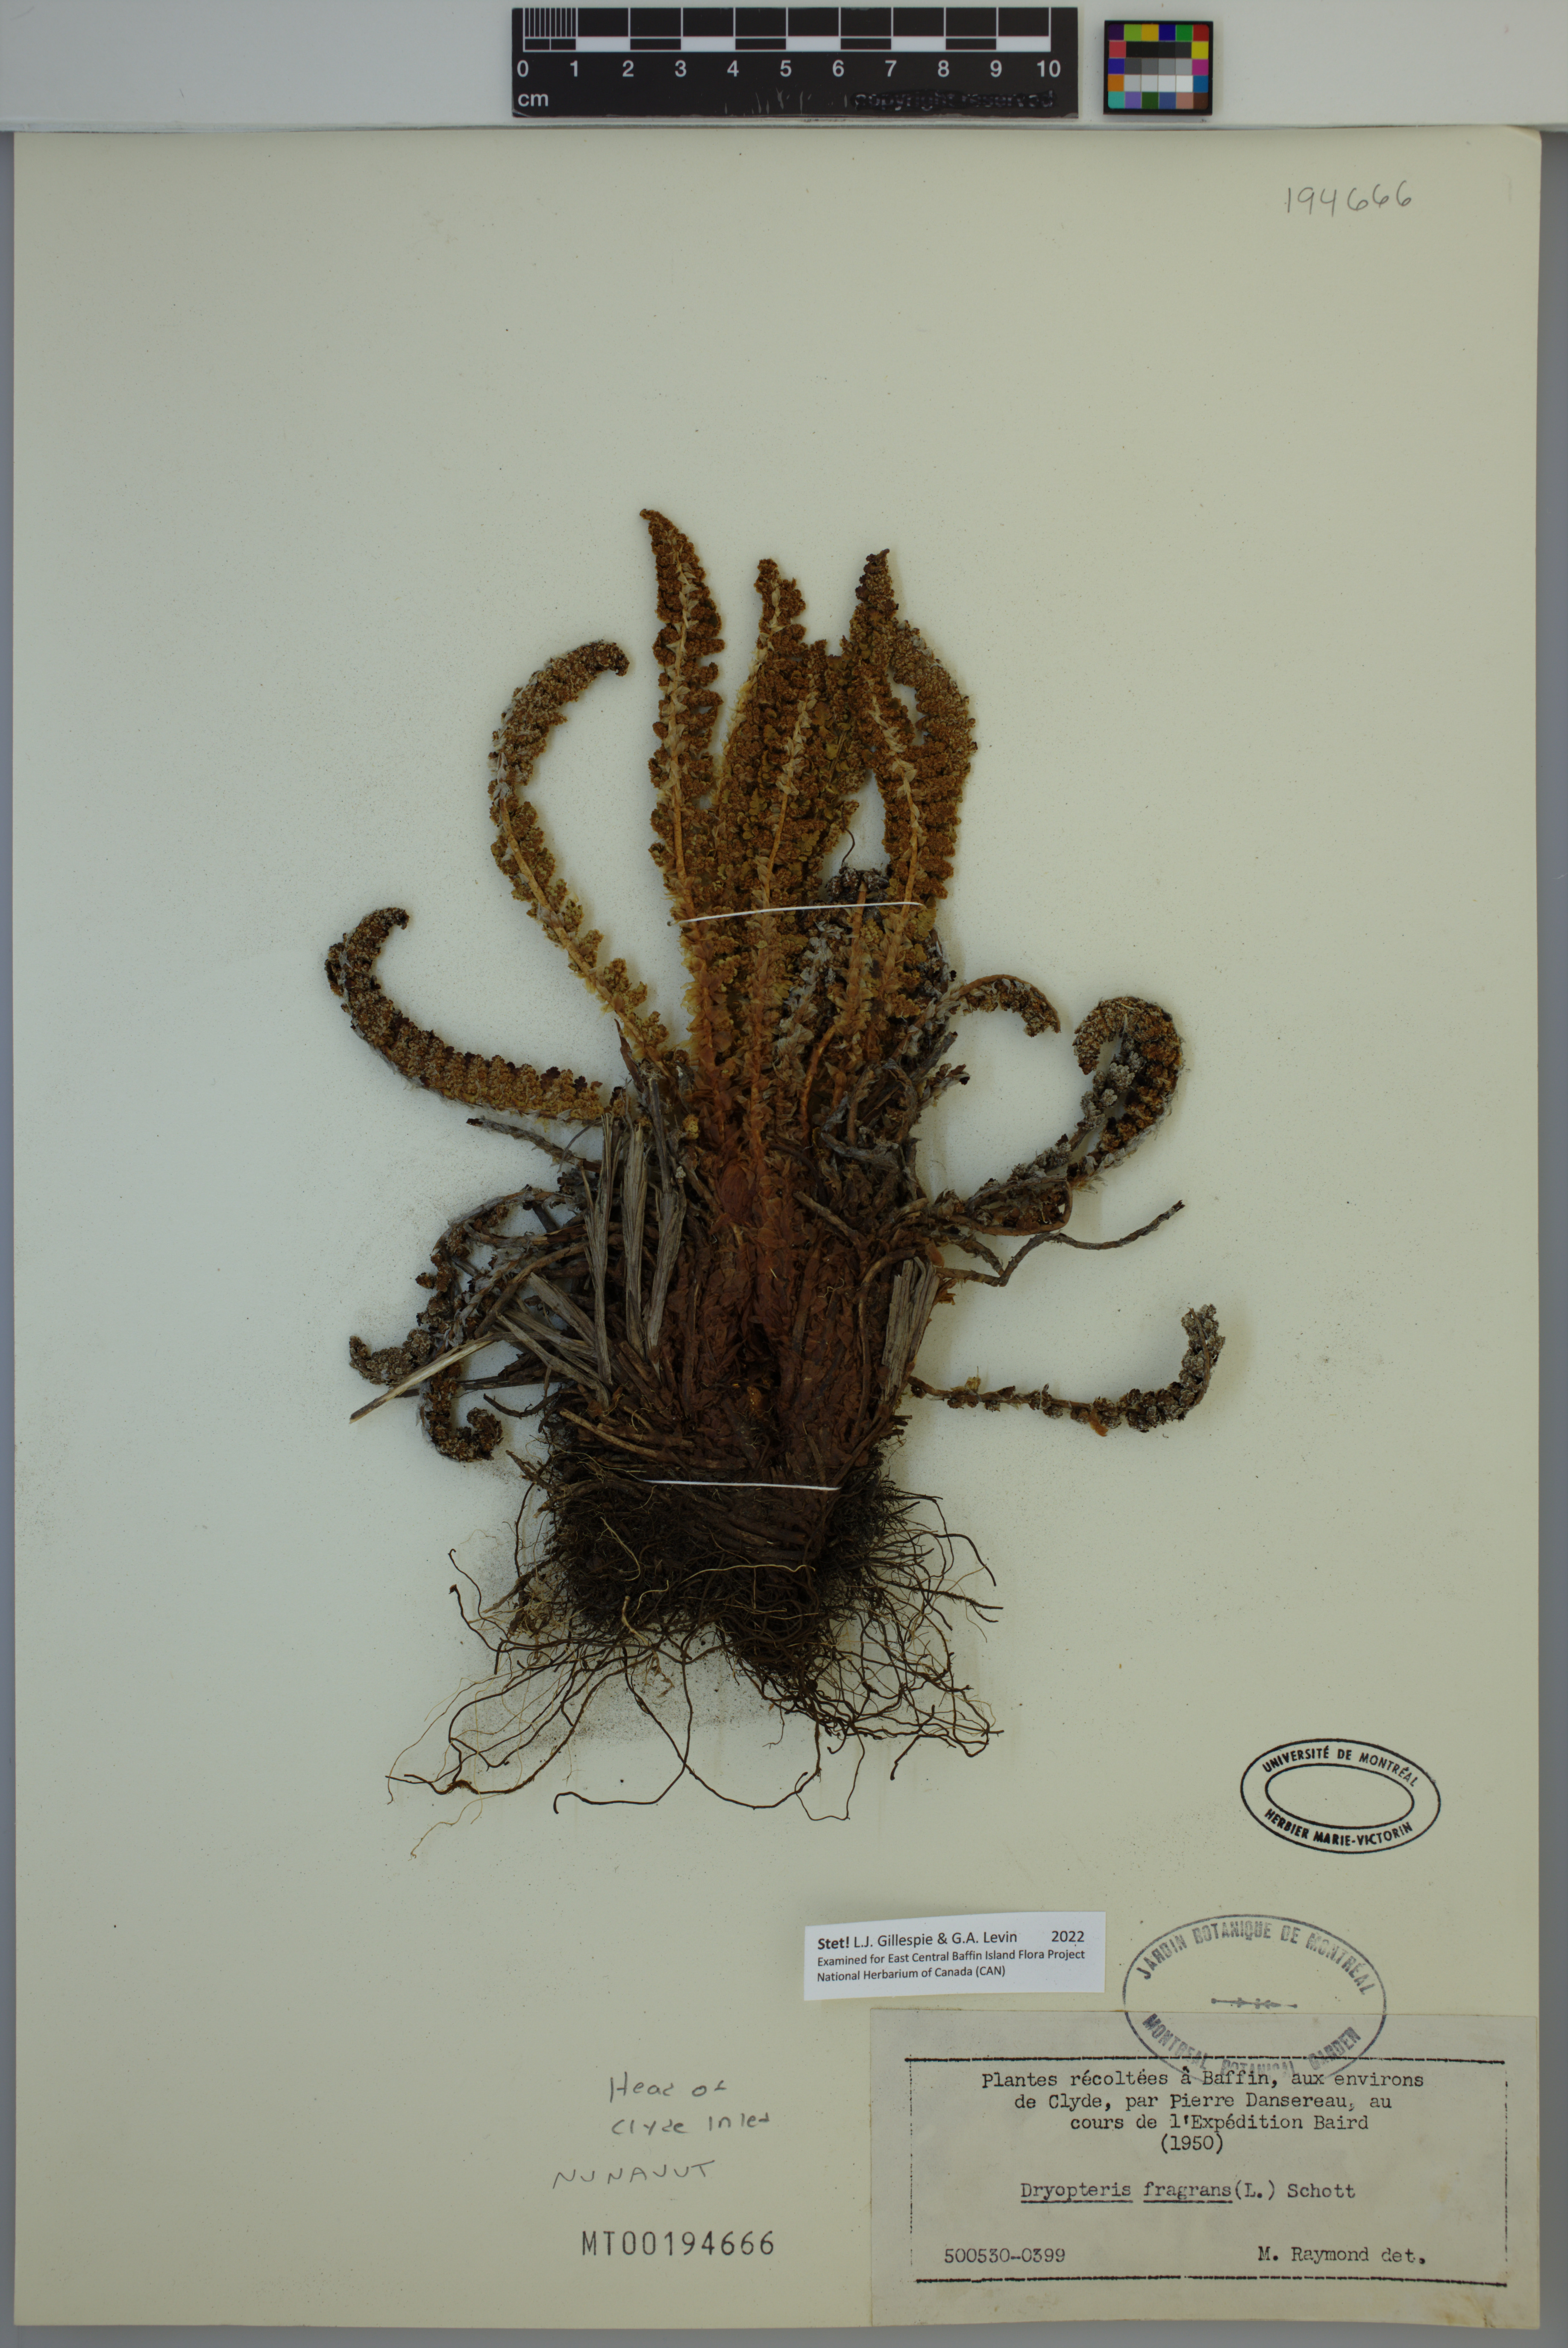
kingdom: Plantae
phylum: Tracheophyta
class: Polypodiopsida
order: Polypodiales
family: Dryopteridaceae
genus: Dryopteris
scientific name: Dryopteris fragrans
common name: Fragrant wood fern
